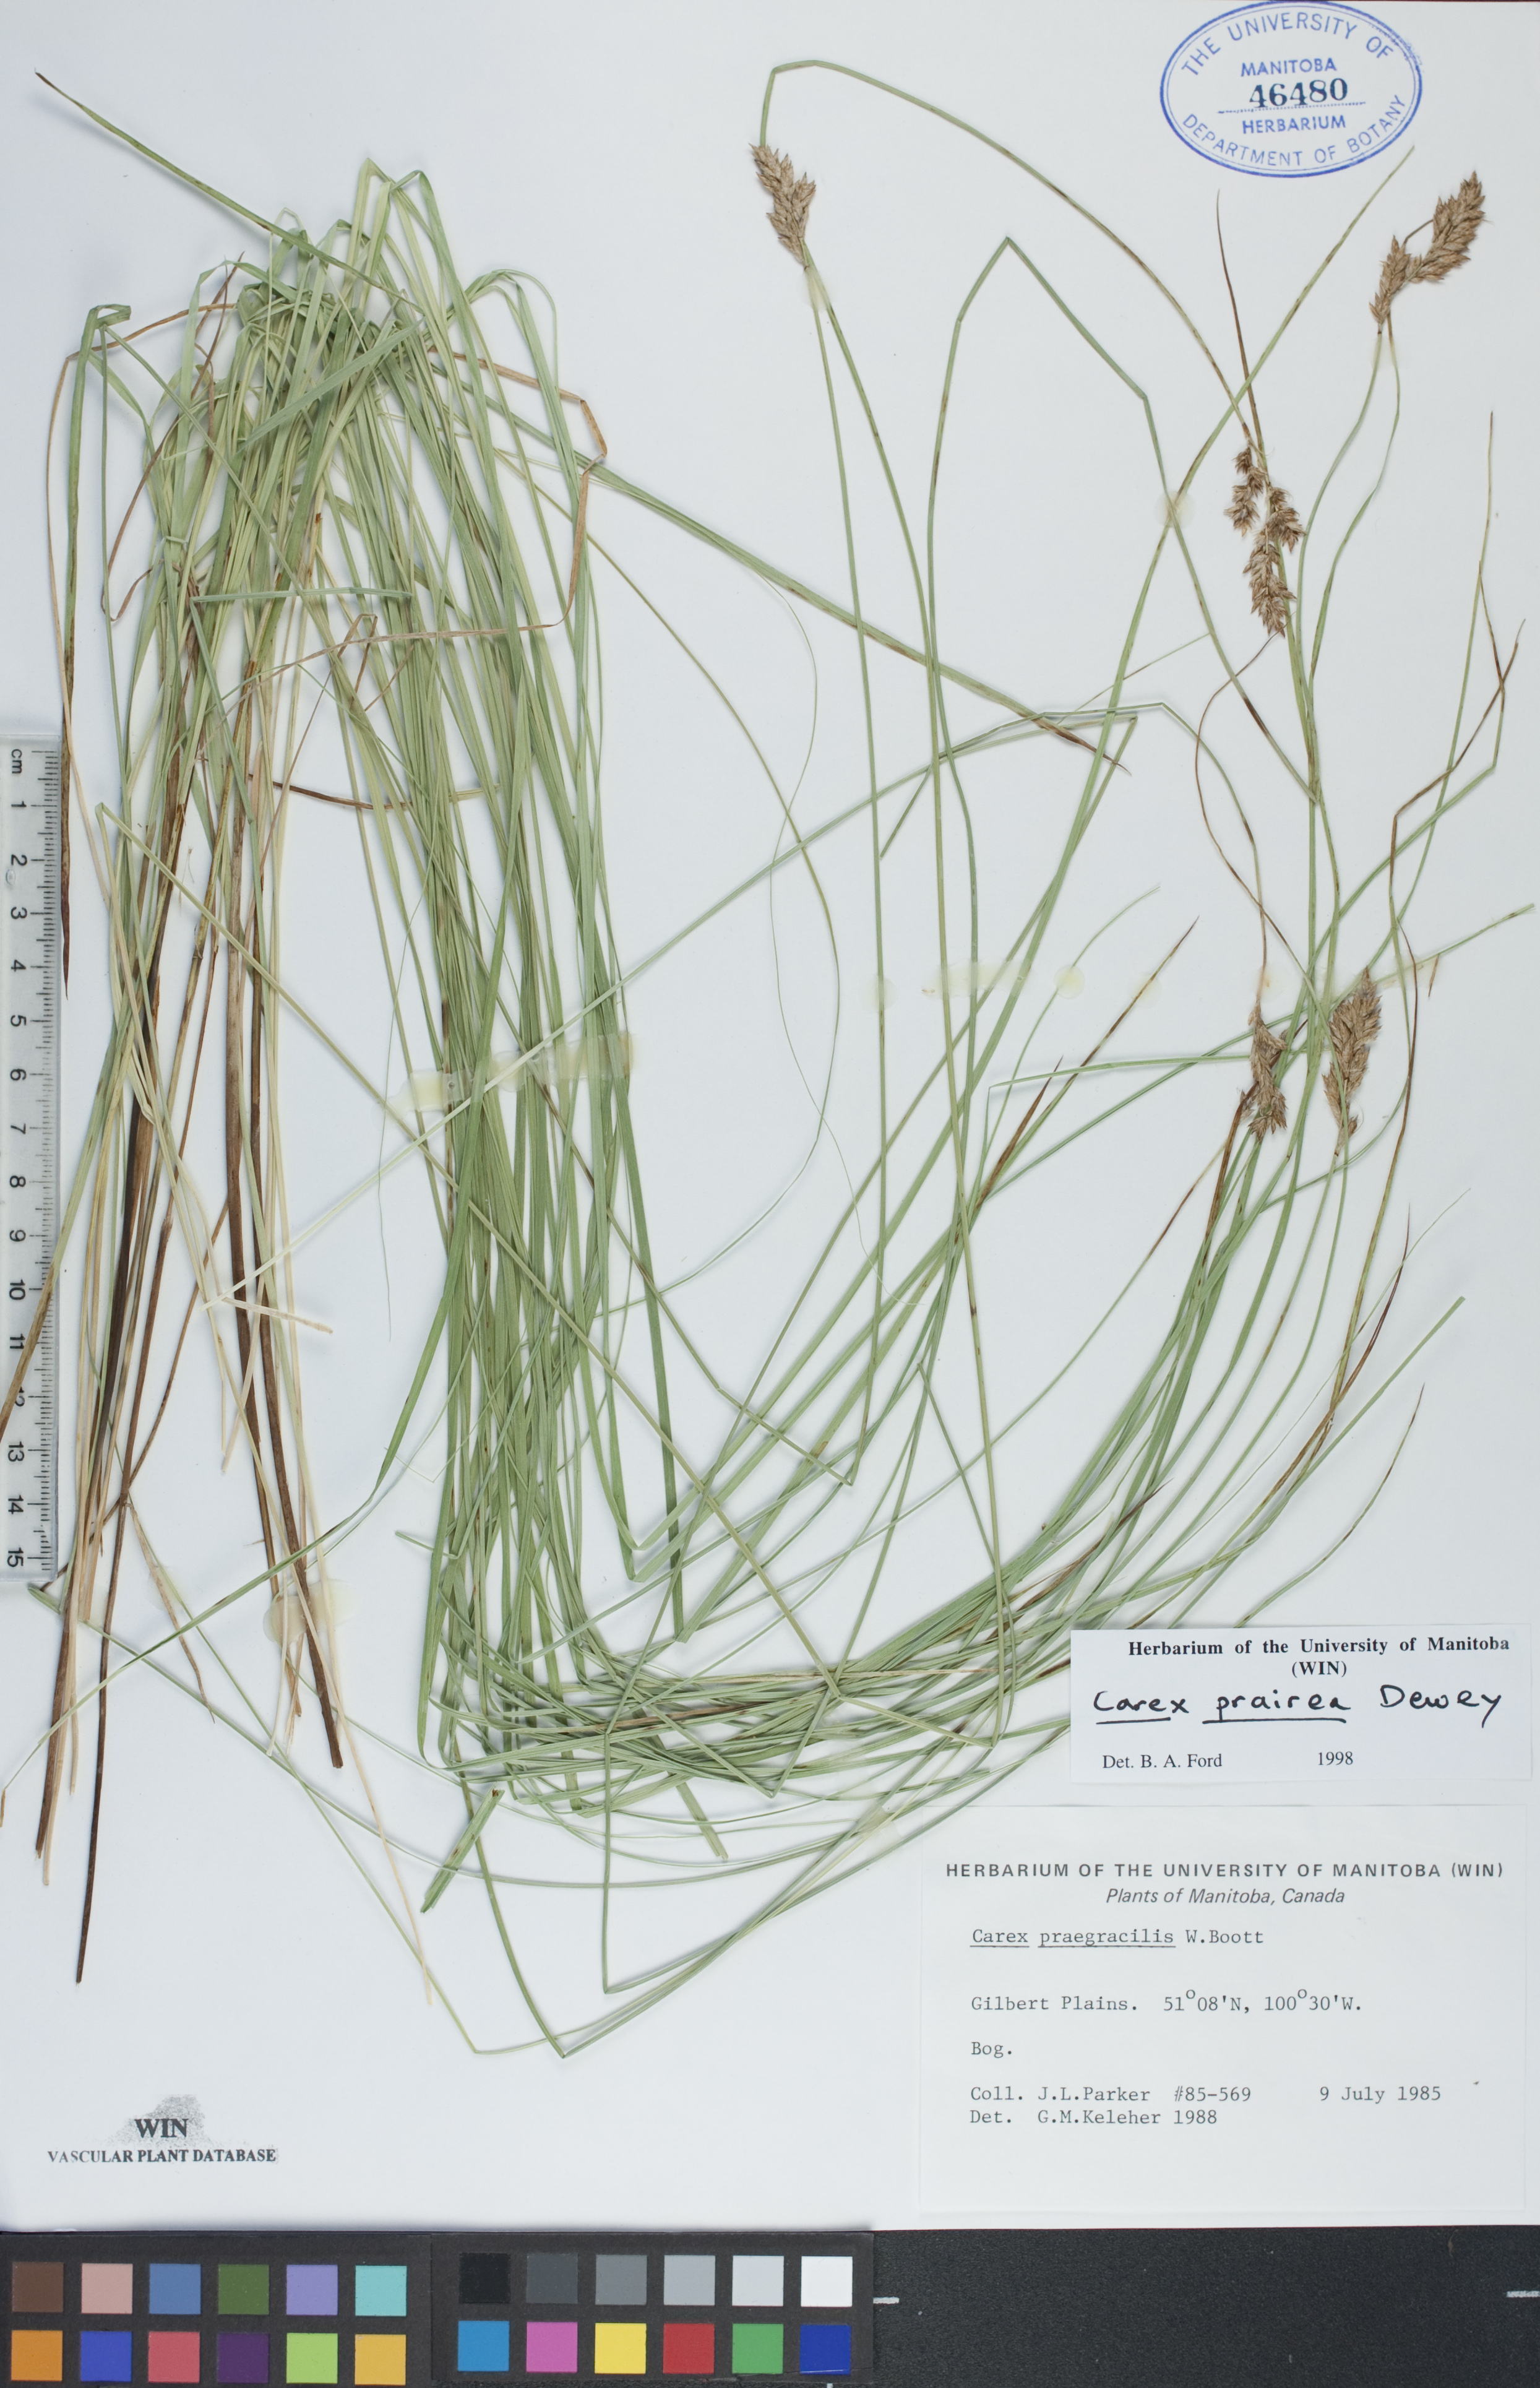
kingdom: Plantae
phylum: Tracheophyta
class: Liliopsida
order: Poales
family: Cyperaceae
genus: Carex
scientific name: Carex prairea
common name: Prairie sedge
